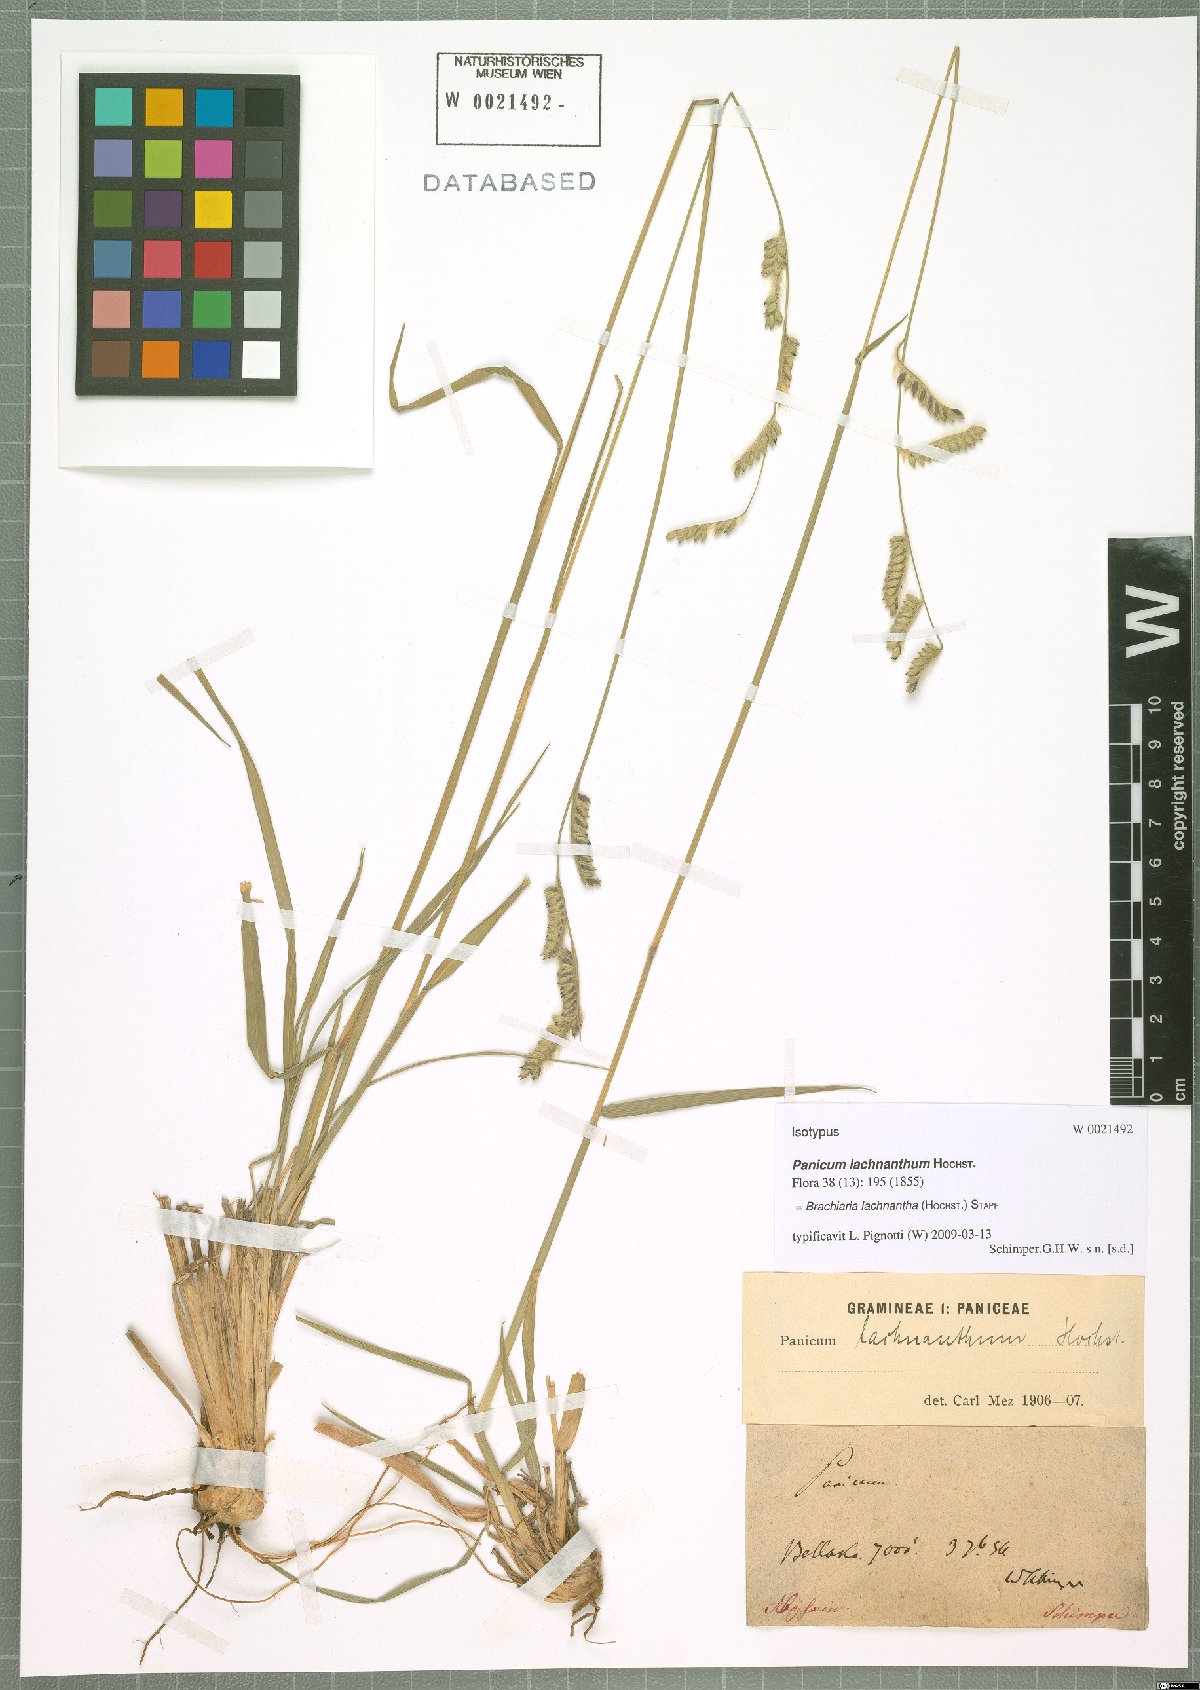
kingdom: Plantae
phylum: Tracheophyta
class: Liliopsida
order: Poales
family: Poaceae
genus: Urochloa
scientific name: Urochloa lachnantha
